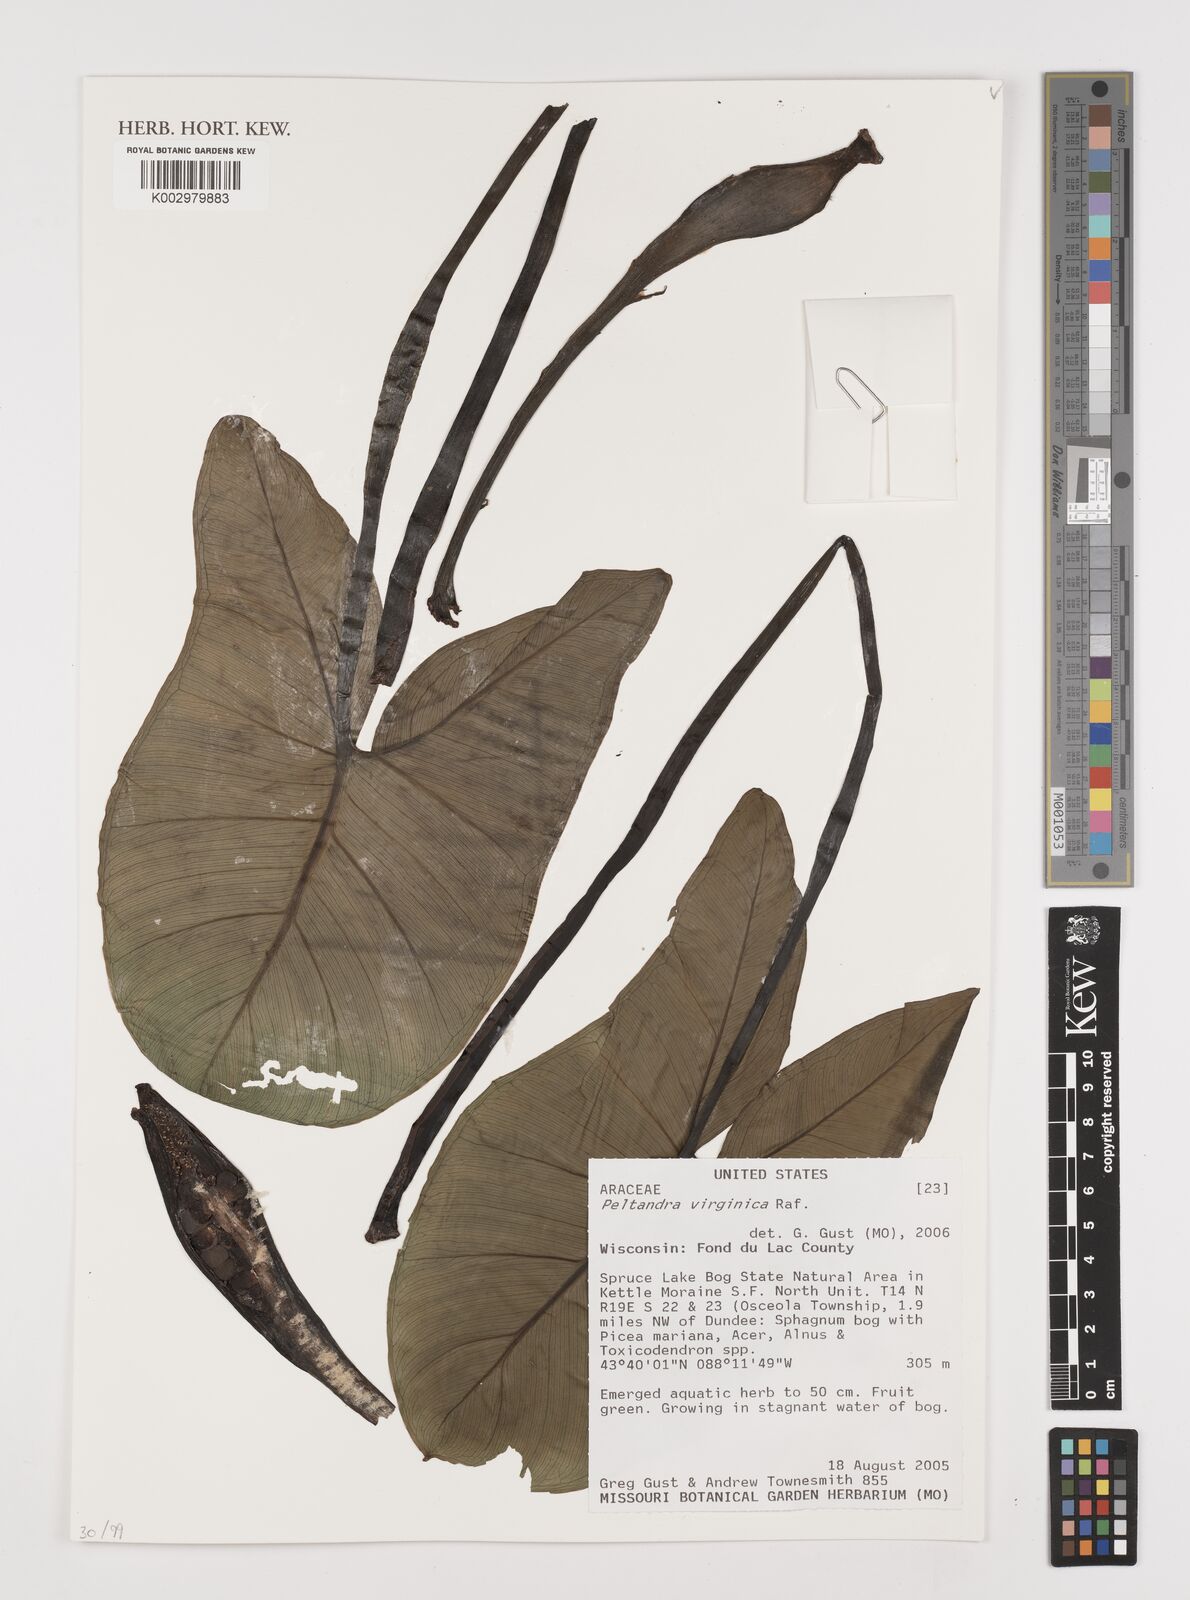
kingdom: Plantae
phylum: Tracheophyta
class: Liliopsida
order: Alismatales
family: Araceae
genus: Peltandra
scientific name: Peltandra virginica
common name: Arrow arum
